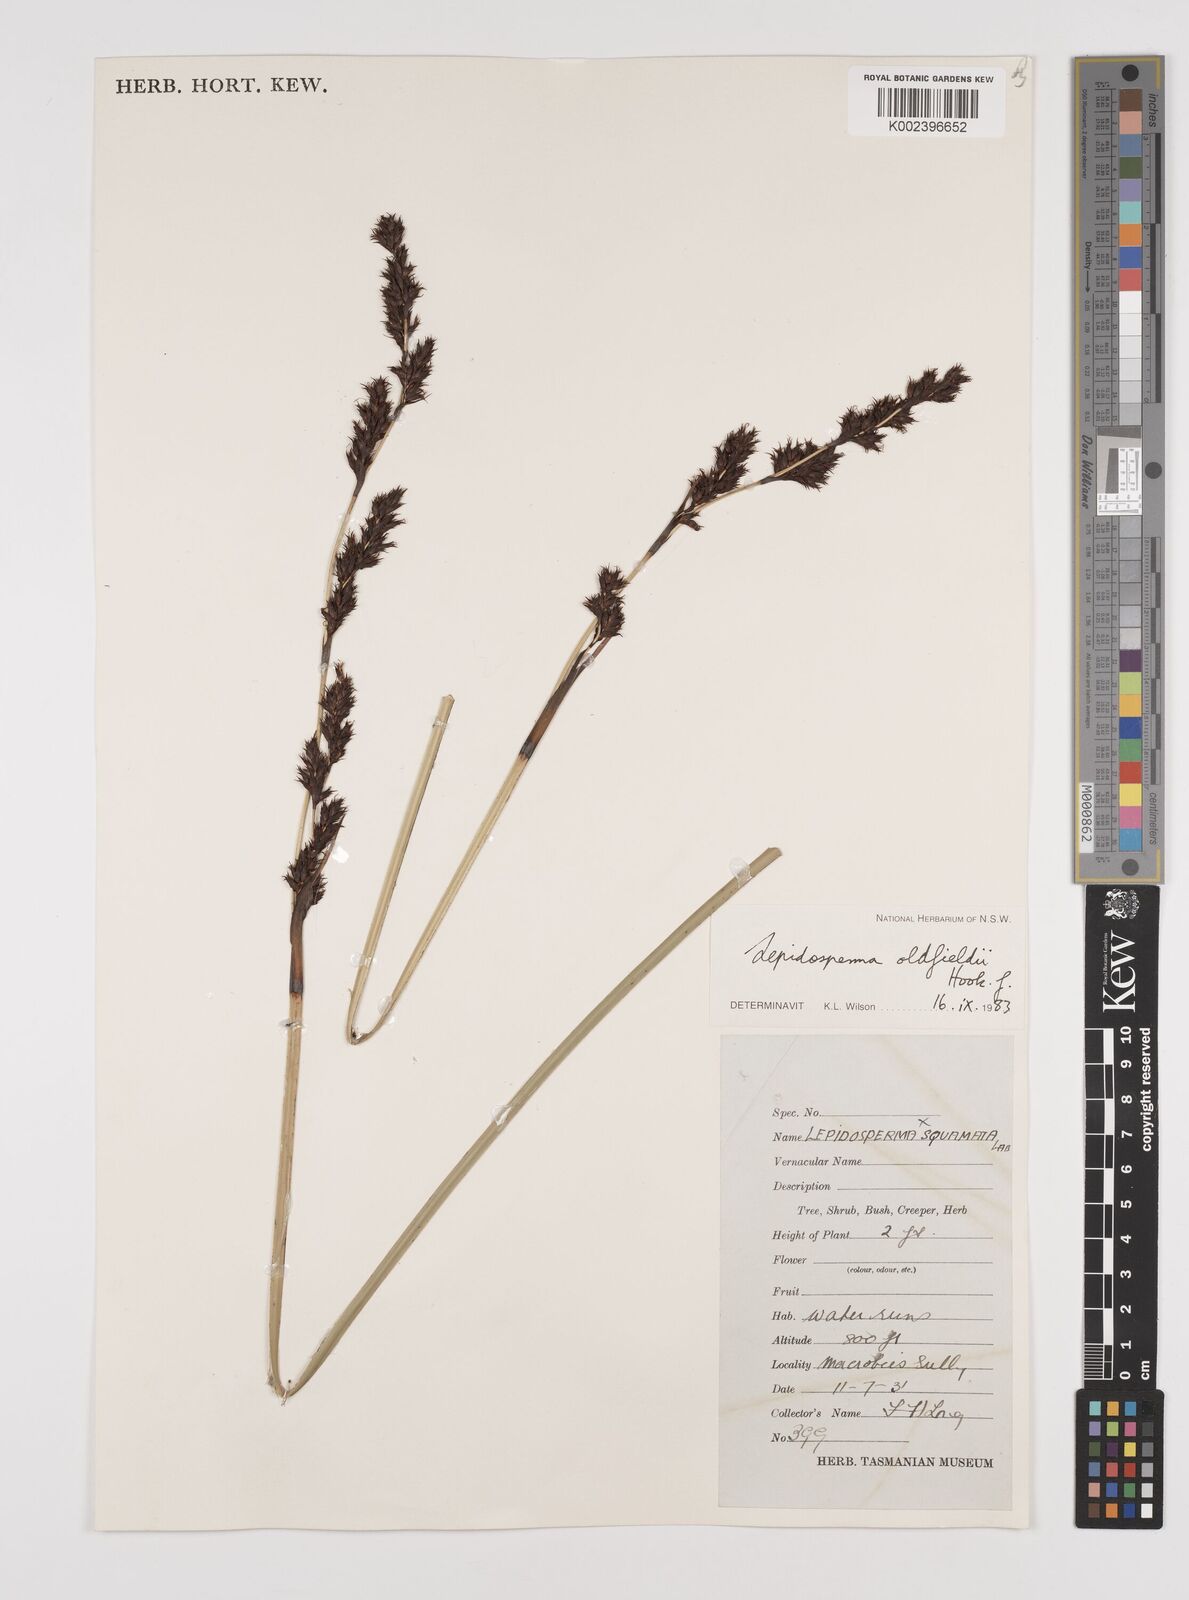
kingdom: Plantae
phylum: Tracheophyta
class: Liliopsida
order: Poales
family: Cyperaceae
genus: Lepidosperma
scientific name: Lepidosperma oldfieldii
